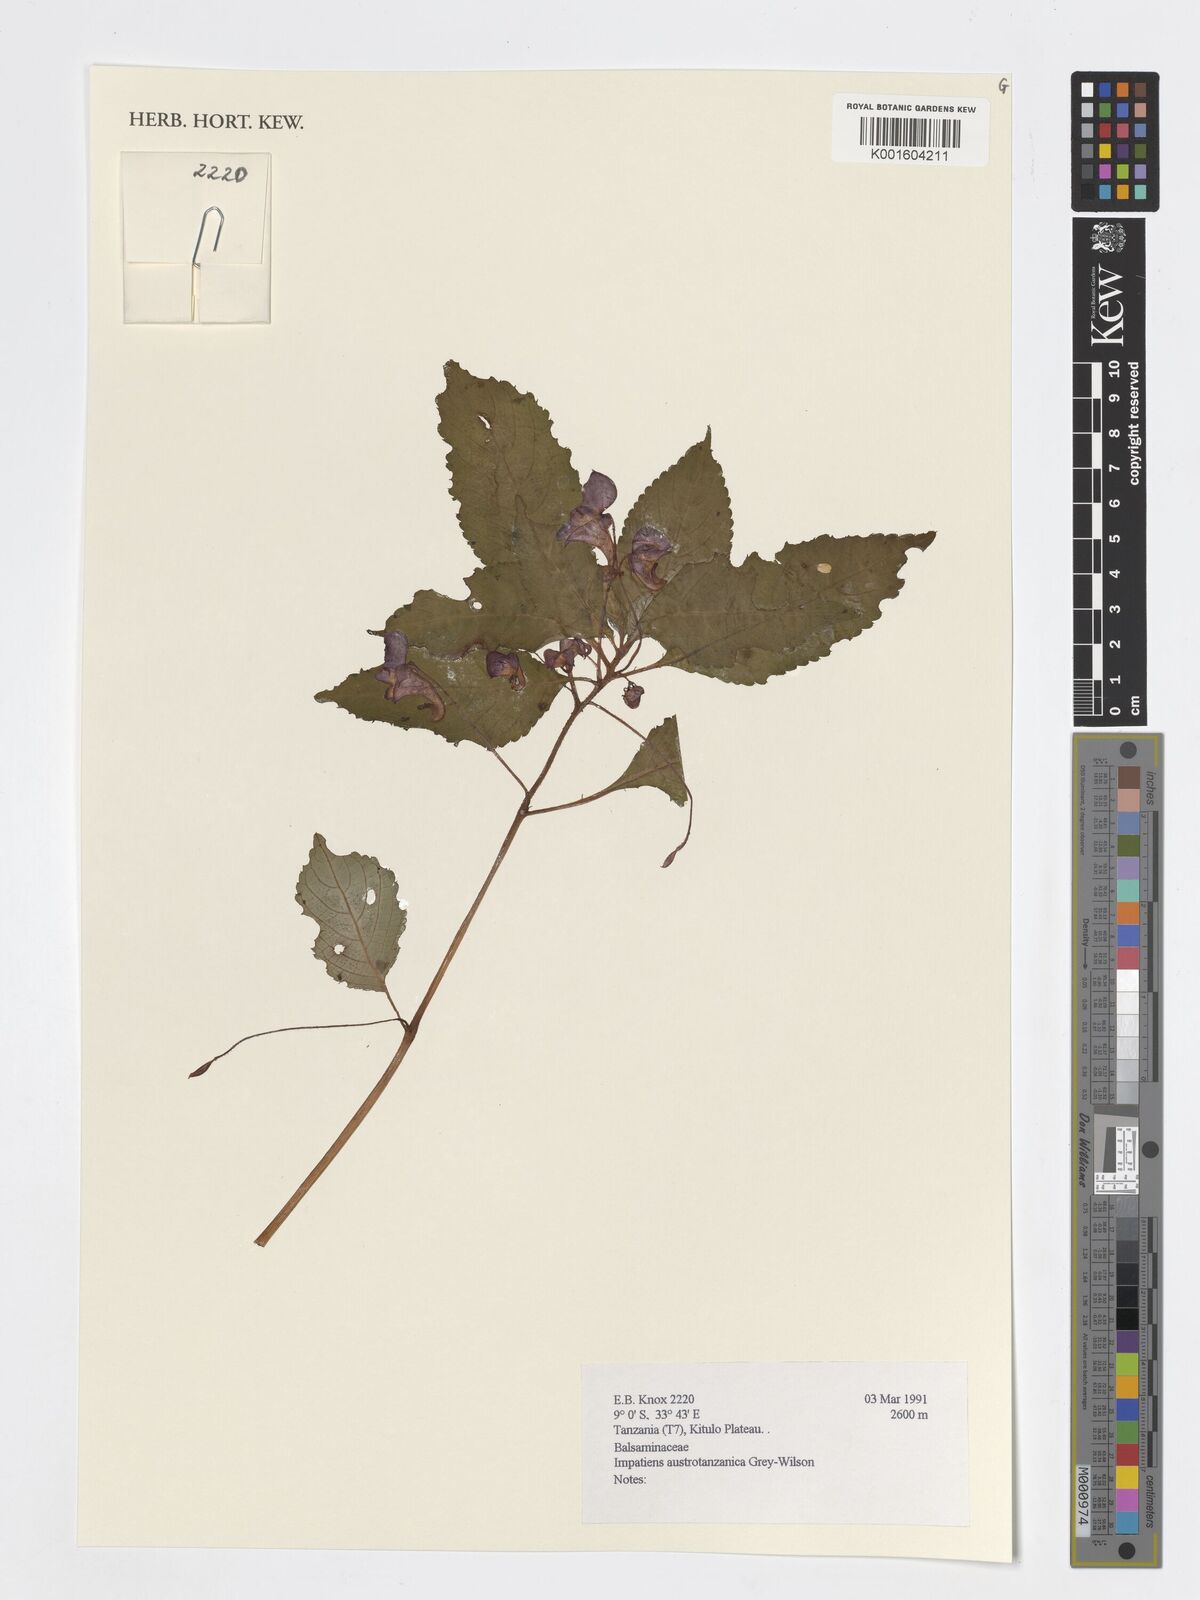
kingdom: Plantae
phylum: Tracheophyta
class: Magnoliopsida
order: Ericales
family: Balsaminaceae
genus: Impatiens
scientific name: Impatiens austrotanzanica
